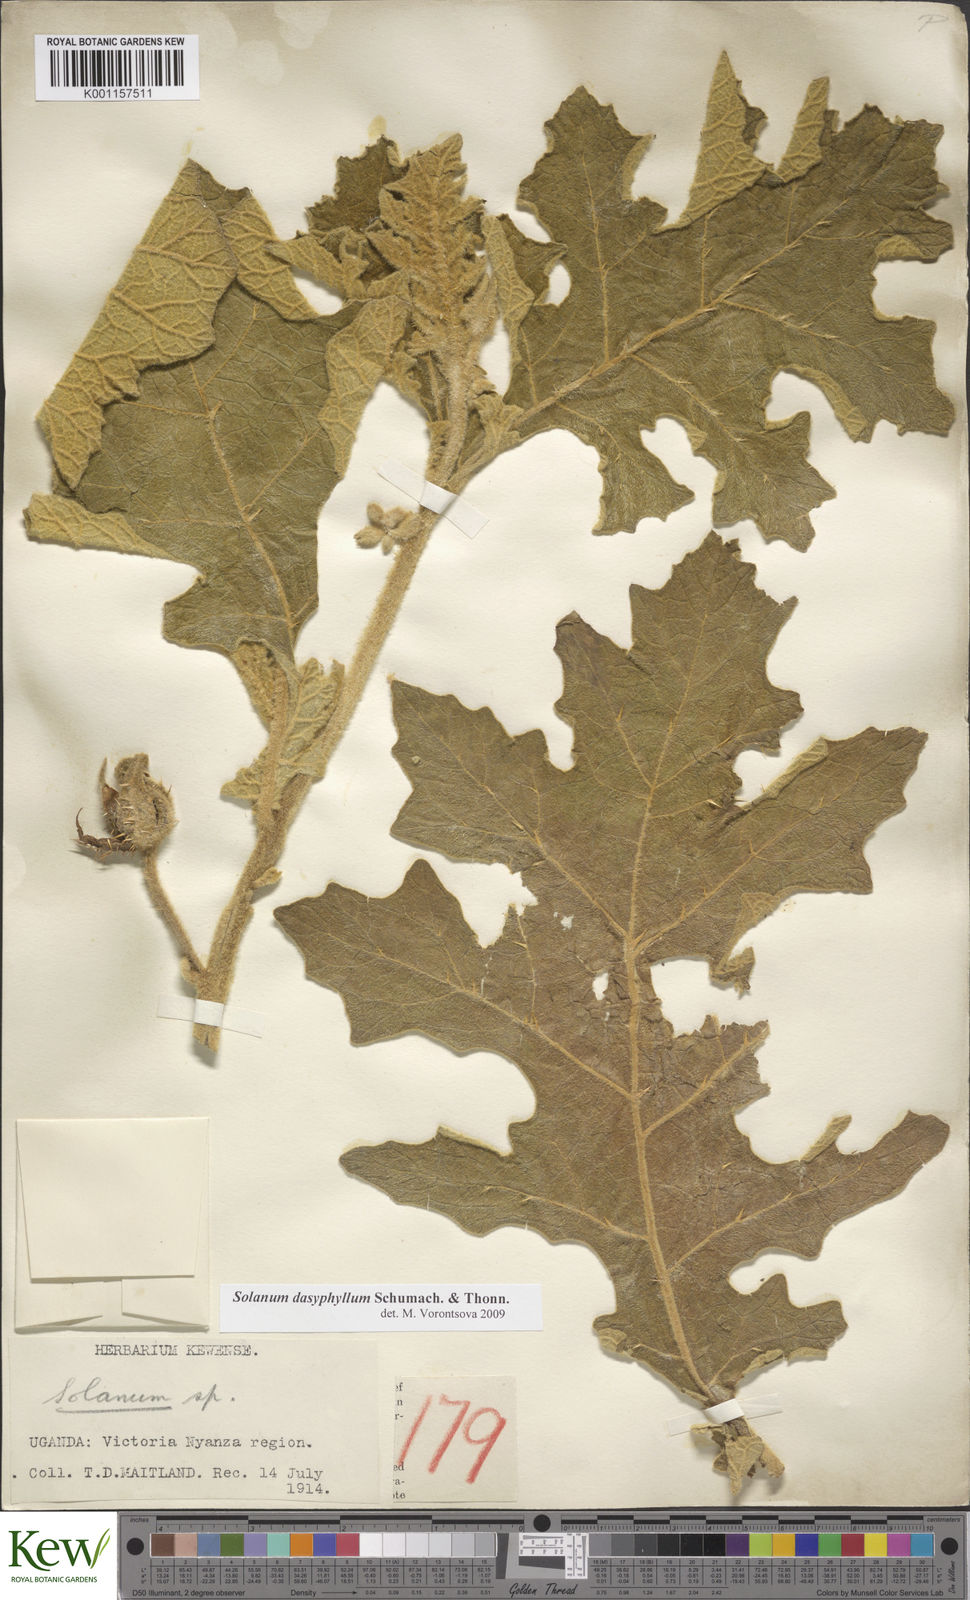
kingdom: Plantae
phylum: Tracheophyta
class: Magnoliopsida
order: Solanales
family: Solanaceae
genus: Solanum
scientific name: Solanum dasyphyllum
